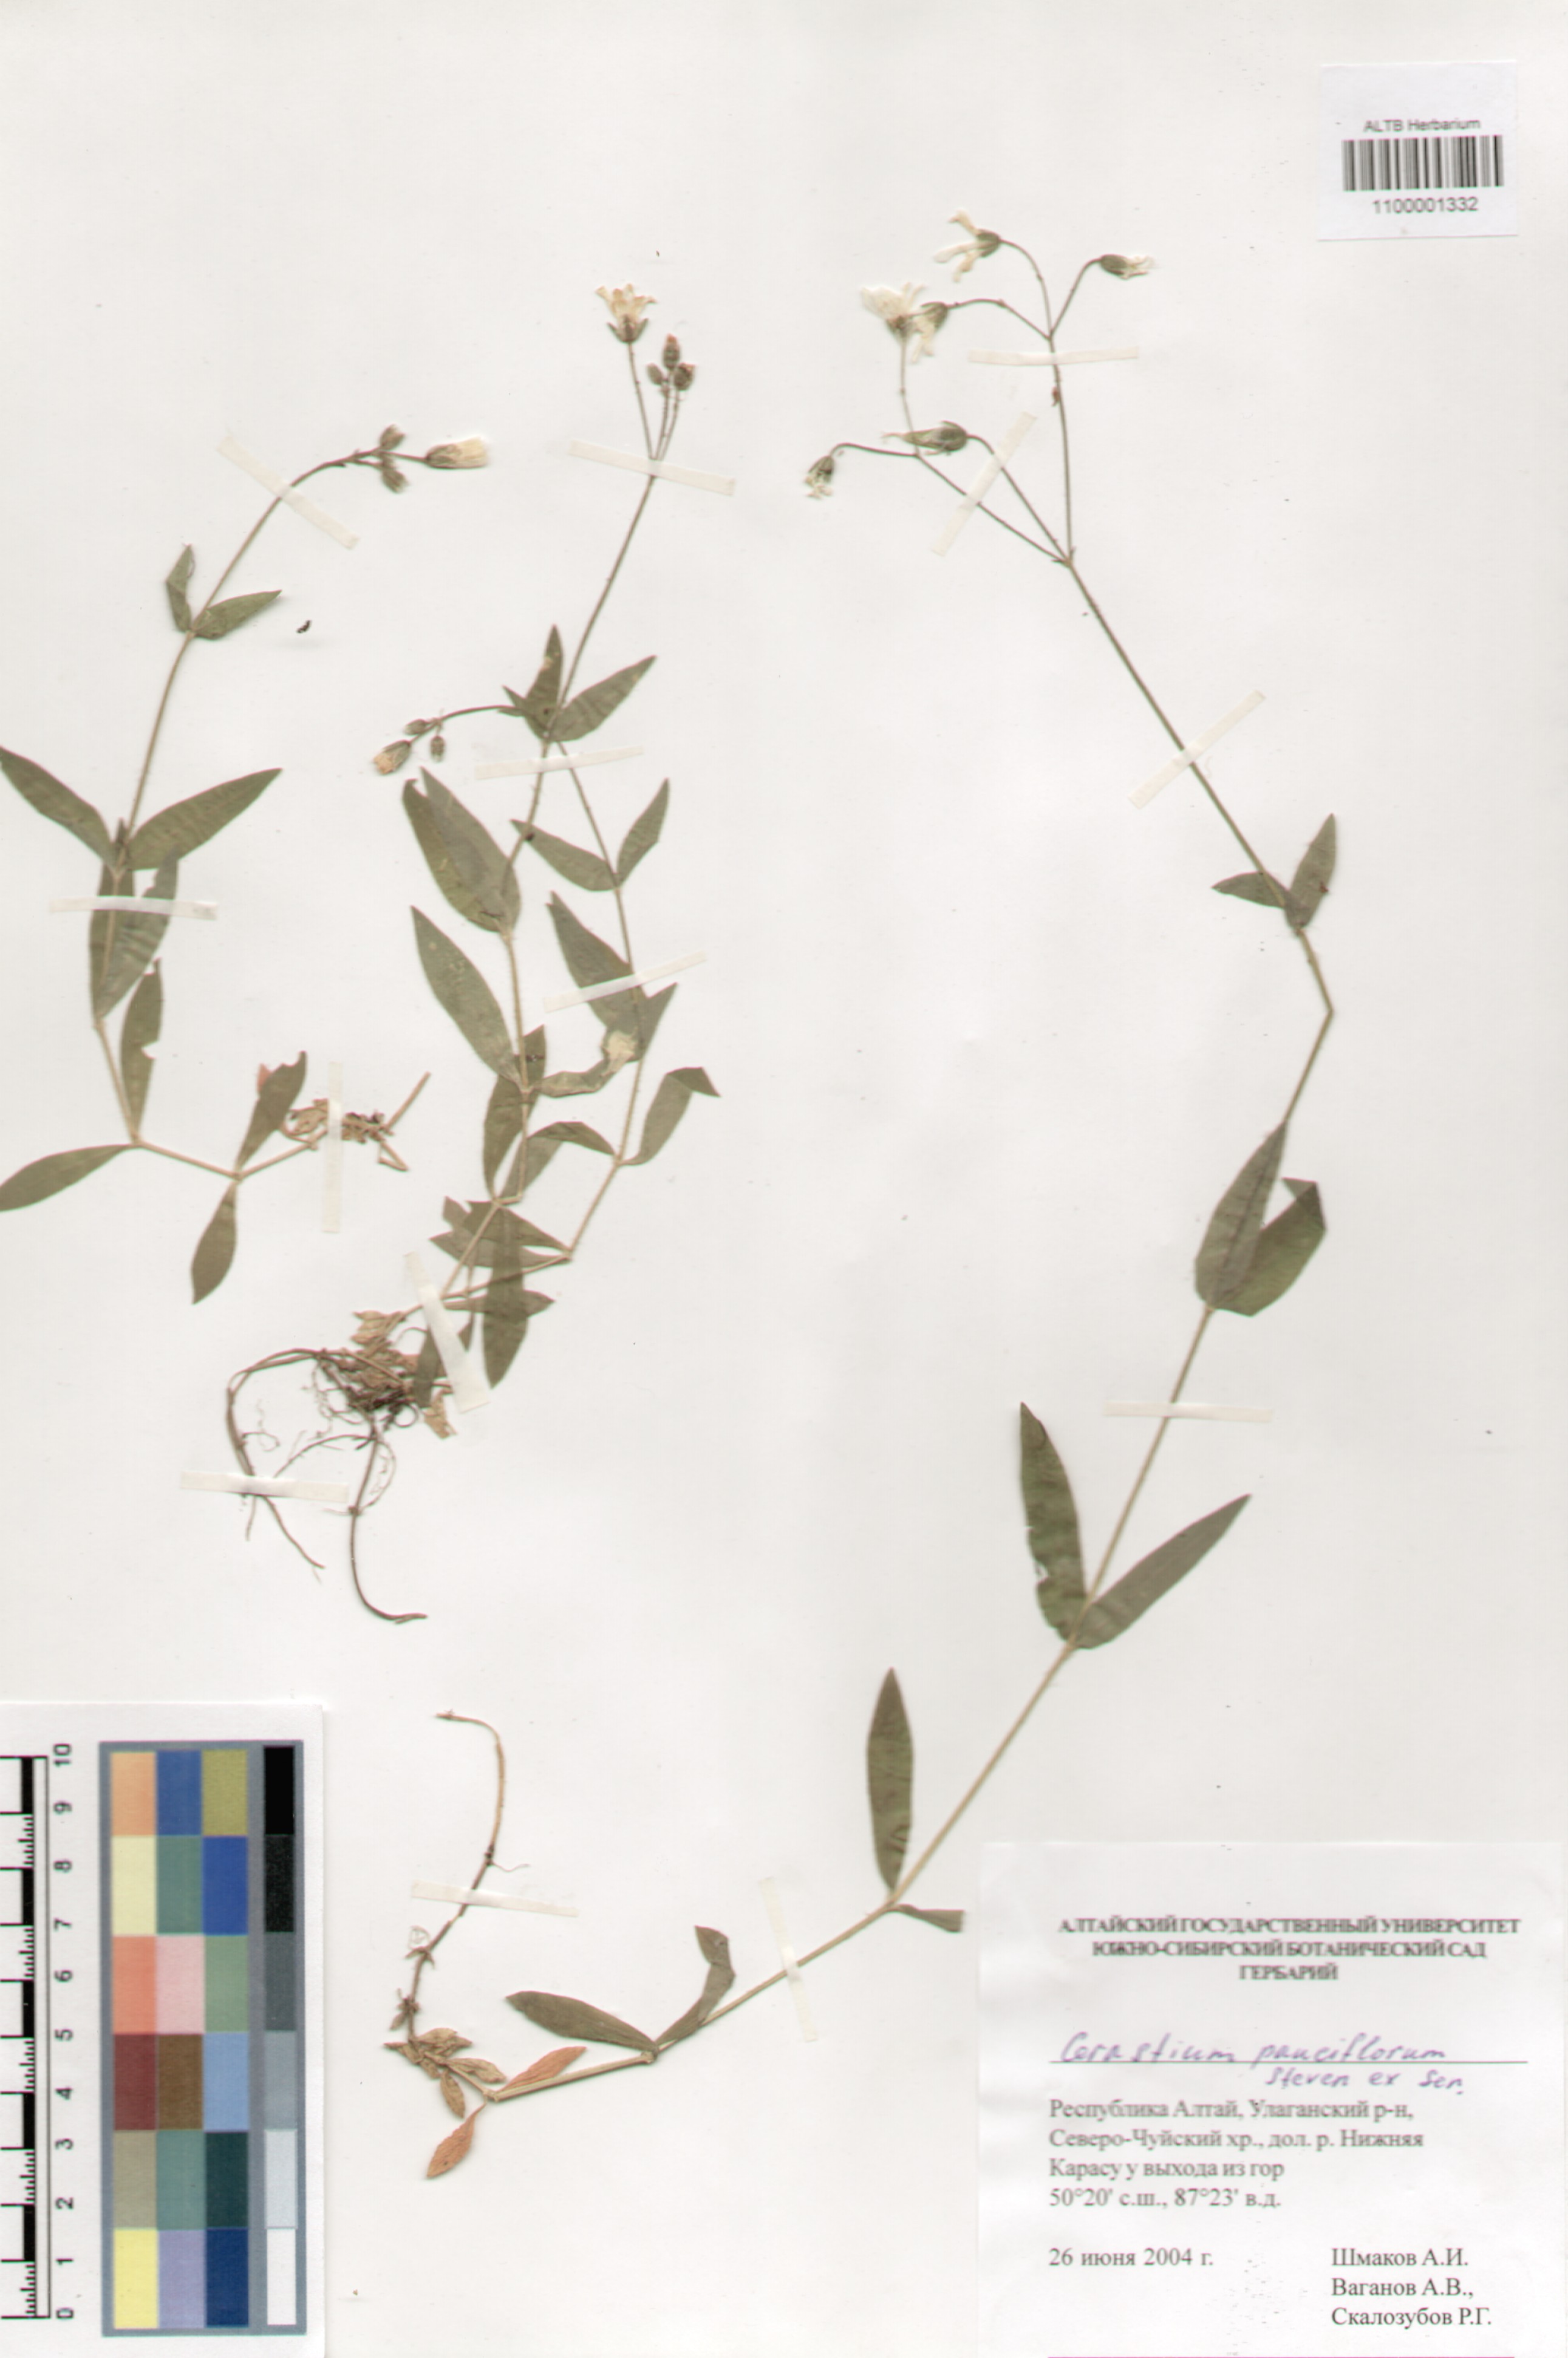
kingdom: Plantae
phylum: Tracheophyta
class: Magnoliopsida
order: Caryophyllales
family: Caryophyllaceae
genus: Cerastium
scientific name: Cerastium pauciflorum
